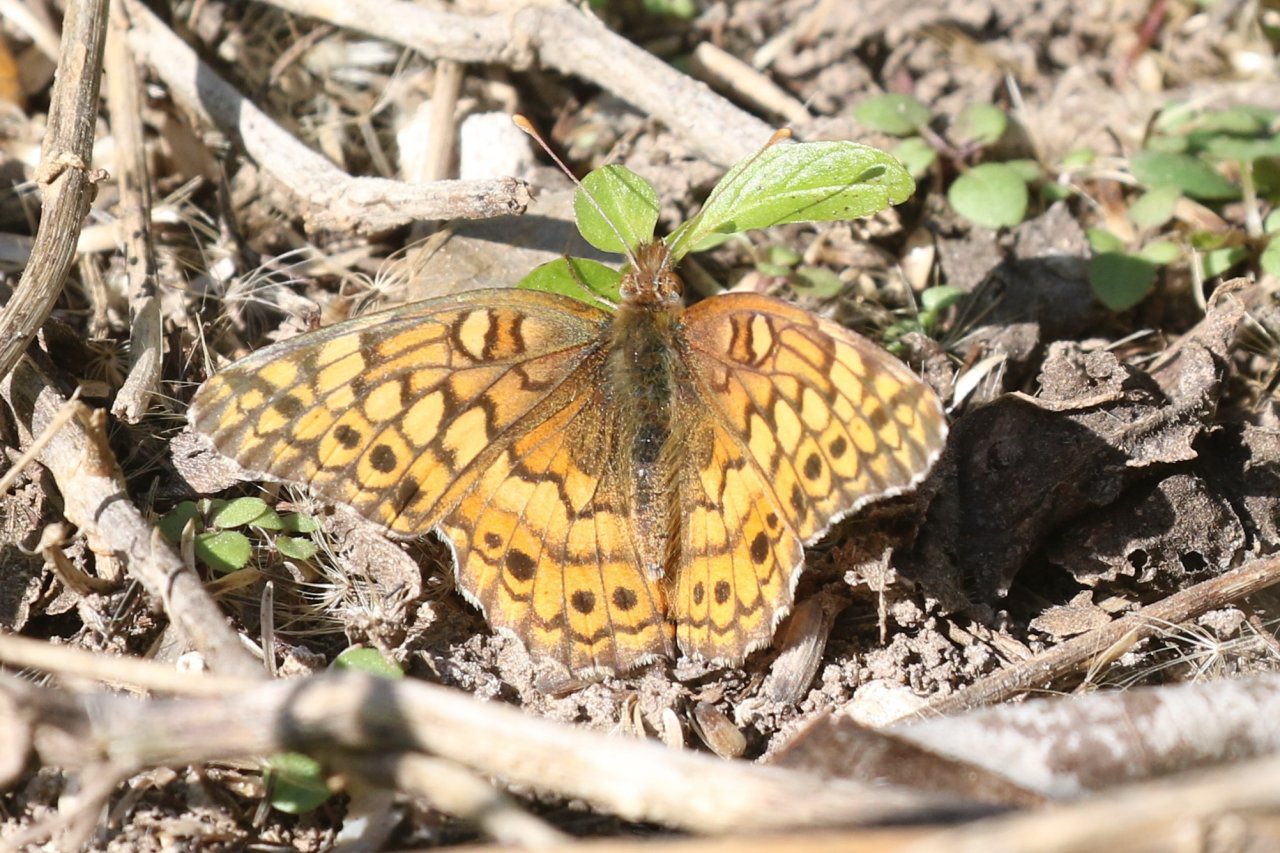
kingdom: Animalia
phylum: Arthropoda
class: Insecta
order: Lepidoptera
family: Nymphalidae
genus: Euptoieta
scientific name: Euptoieta claudia
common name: Variegated Fritillary
